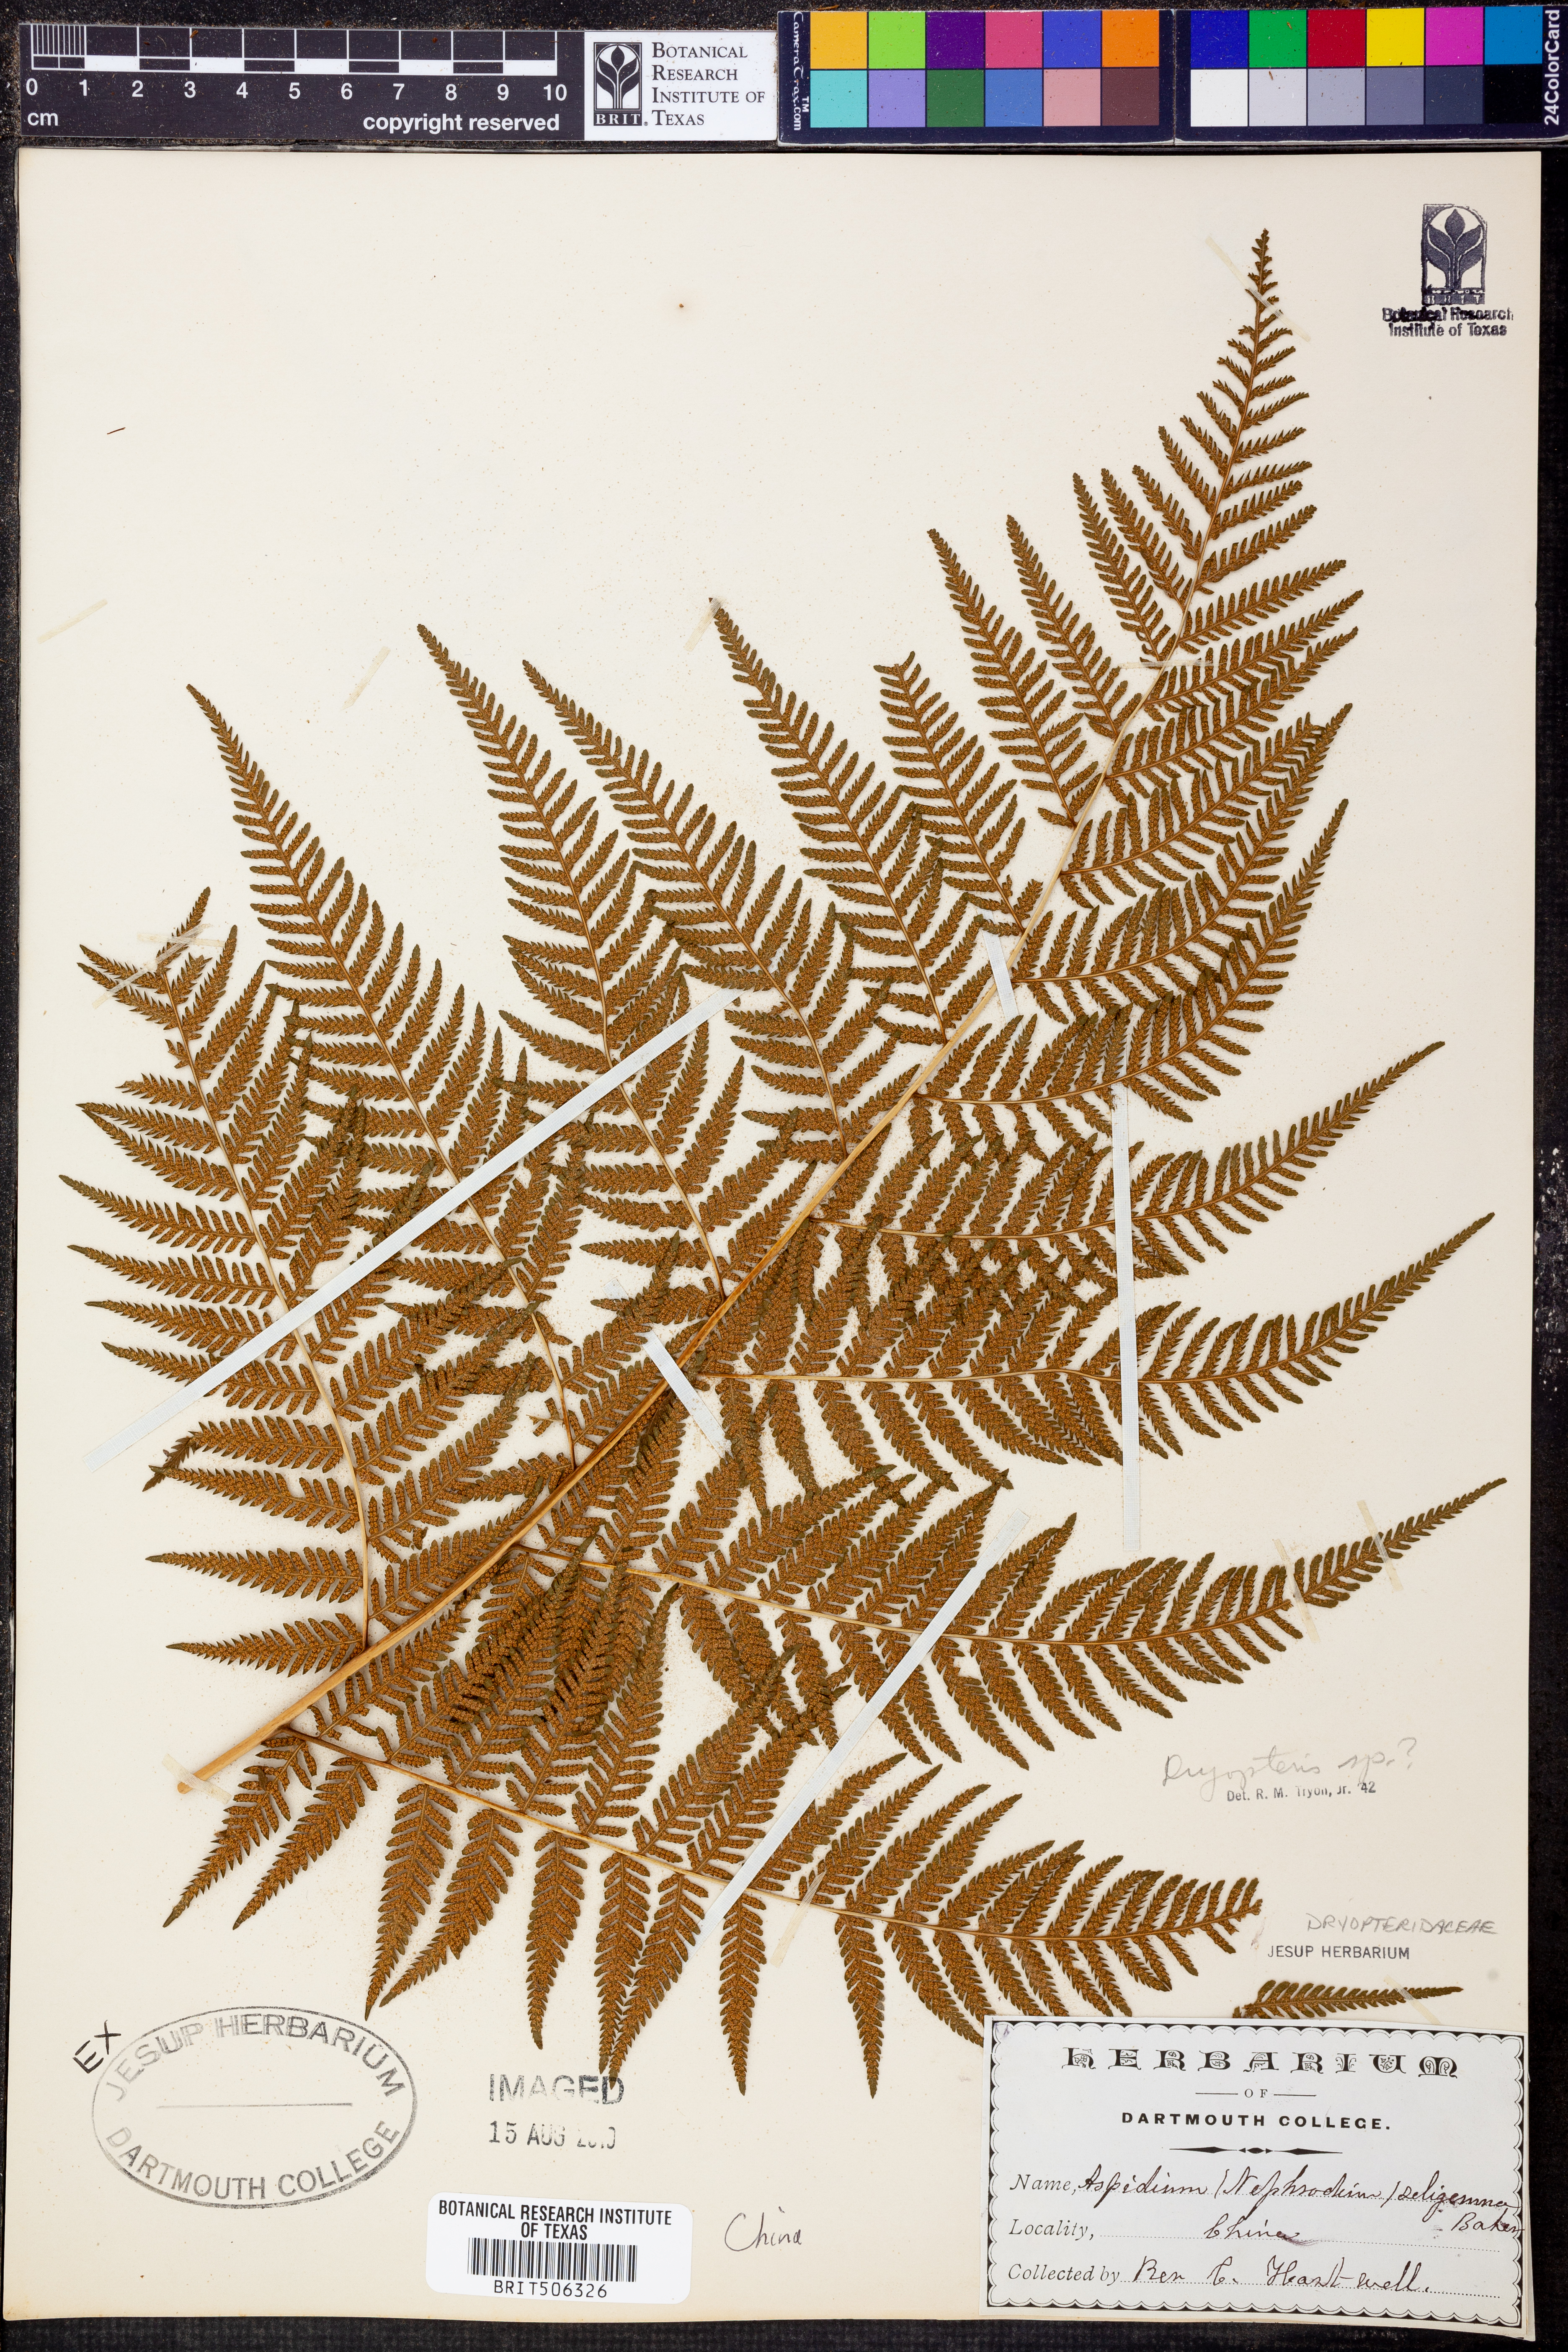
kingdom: Plantae
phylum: Tracheophyta
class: Polypodiopsida
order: Polypodiales
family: Dryopteridaceae
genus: Dryopteris
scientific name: Dryopteris
